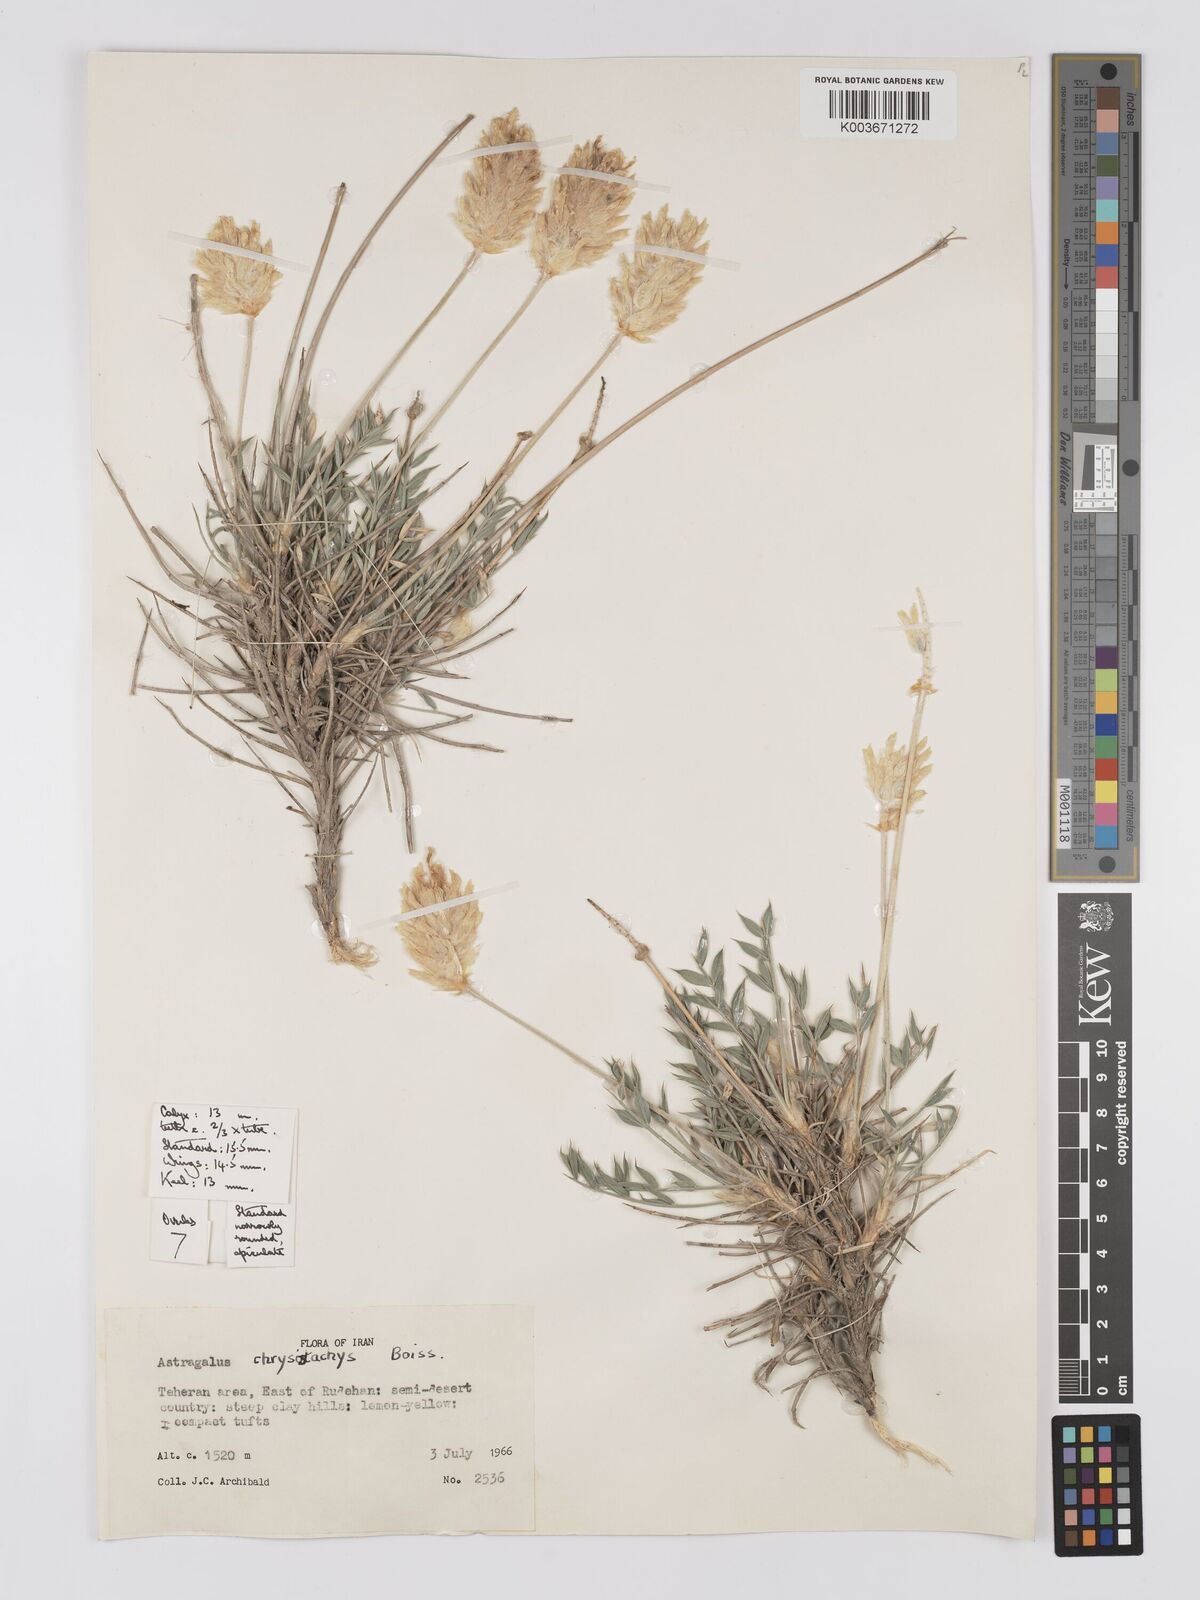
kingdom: Plantae
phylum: Tracheophyta
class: Magnoliopsida
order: Fabales
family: Fabaceae
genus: Astragalus
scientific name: Astragalus chrysostachys
